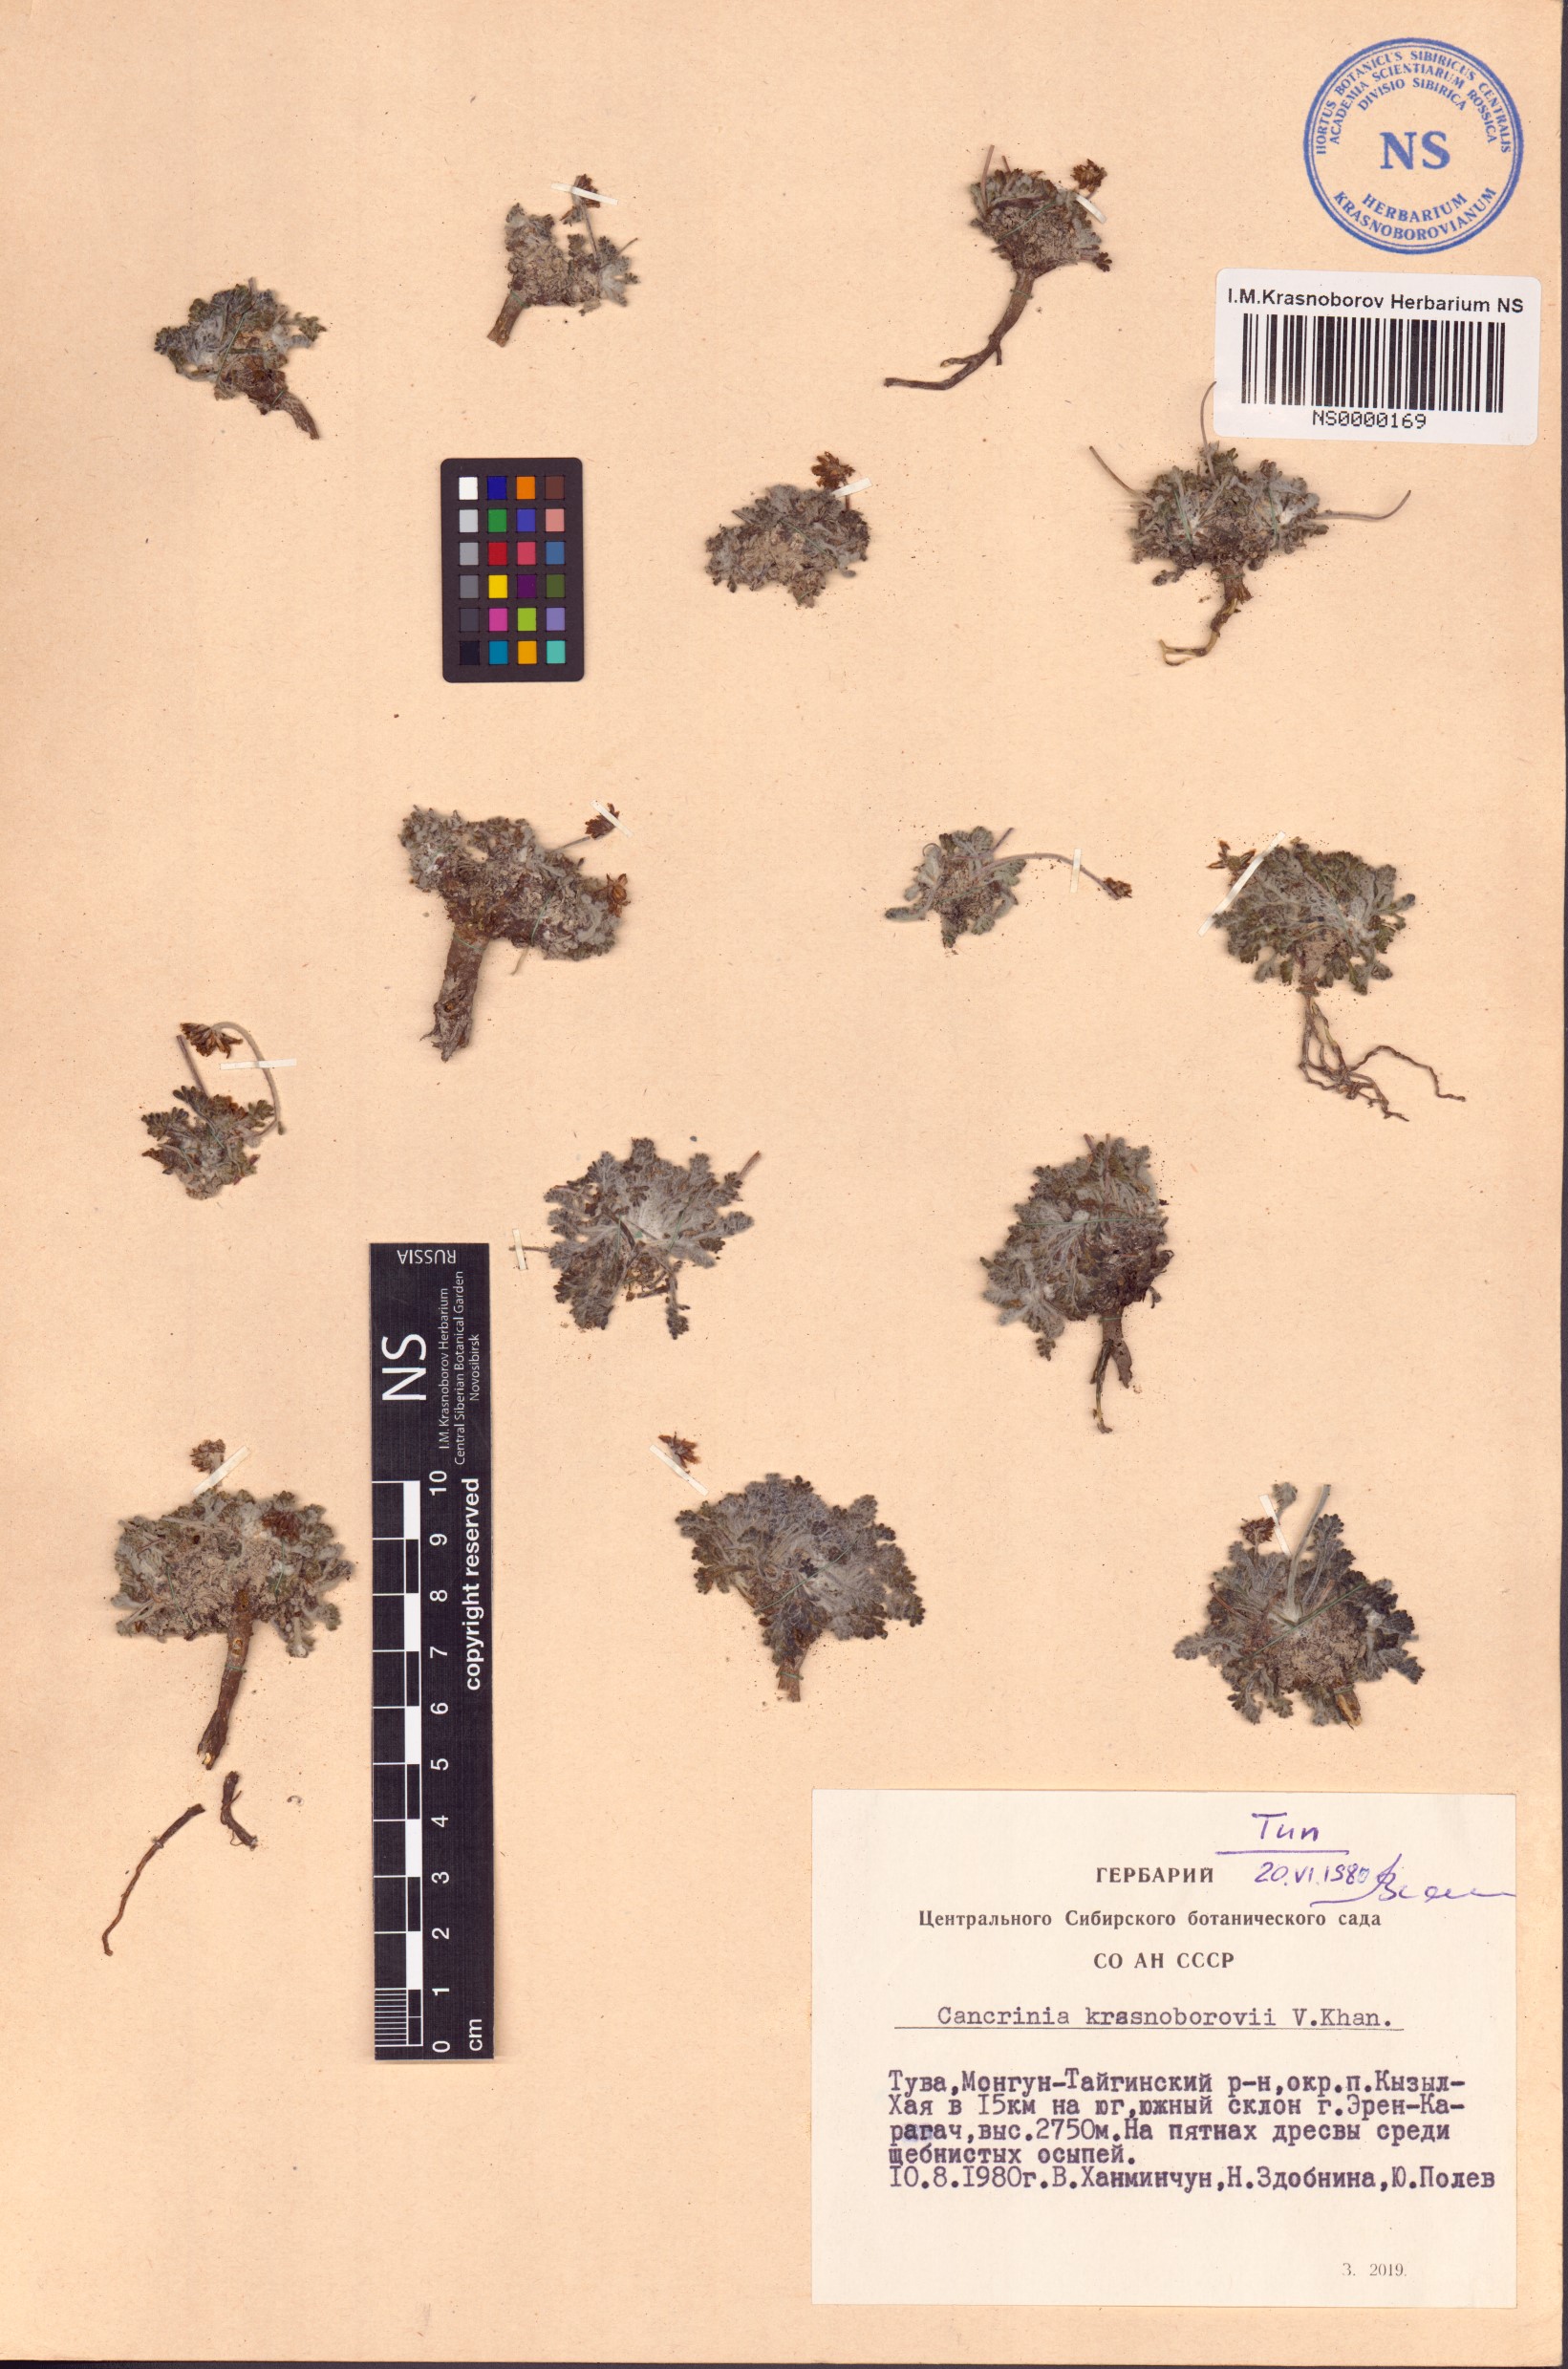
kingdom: Plantae
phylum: Tracheophyta
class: Magnoliopsida
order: Asterales
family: Asteraceae
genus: Cancrinia
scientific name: Cancrinia krasnoborovii
